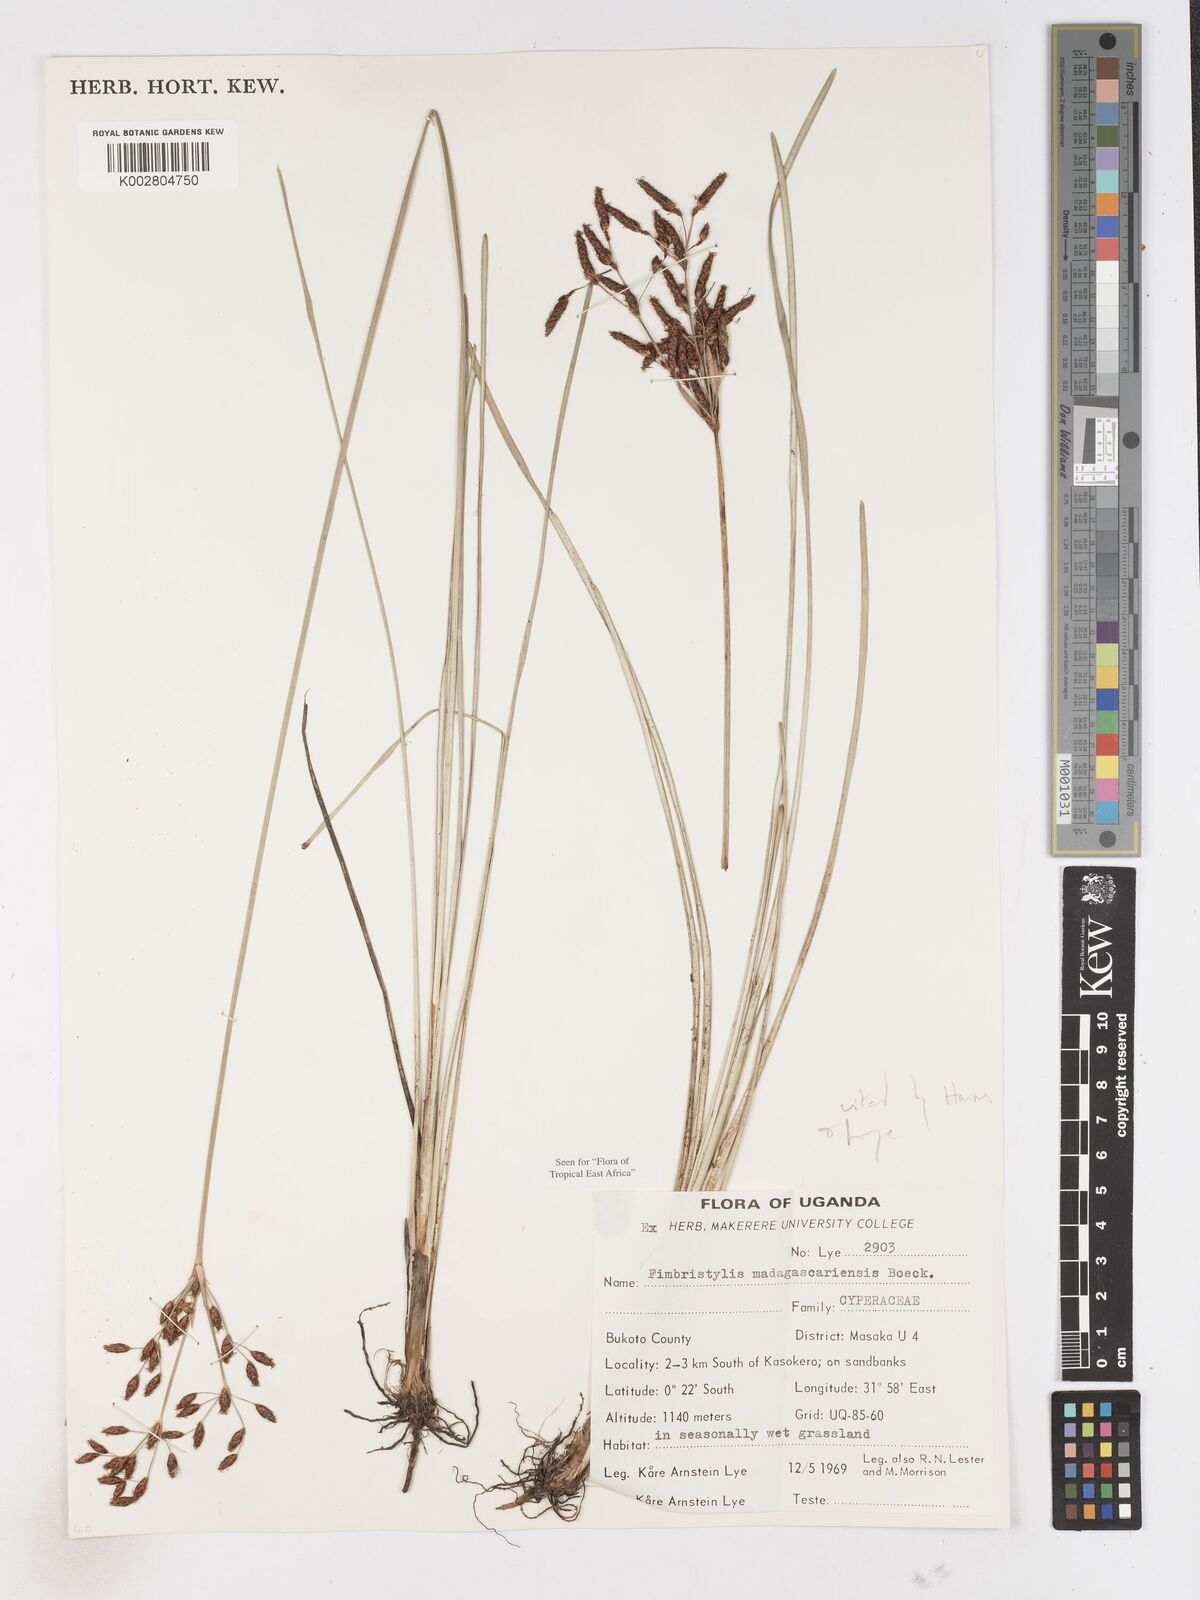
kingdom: Plantae
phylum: Tracheophyta
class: Liliopsida
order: Poales
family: Cyperaceae
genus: Fimbristylis
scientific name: Fimbristylis madagascariensis
